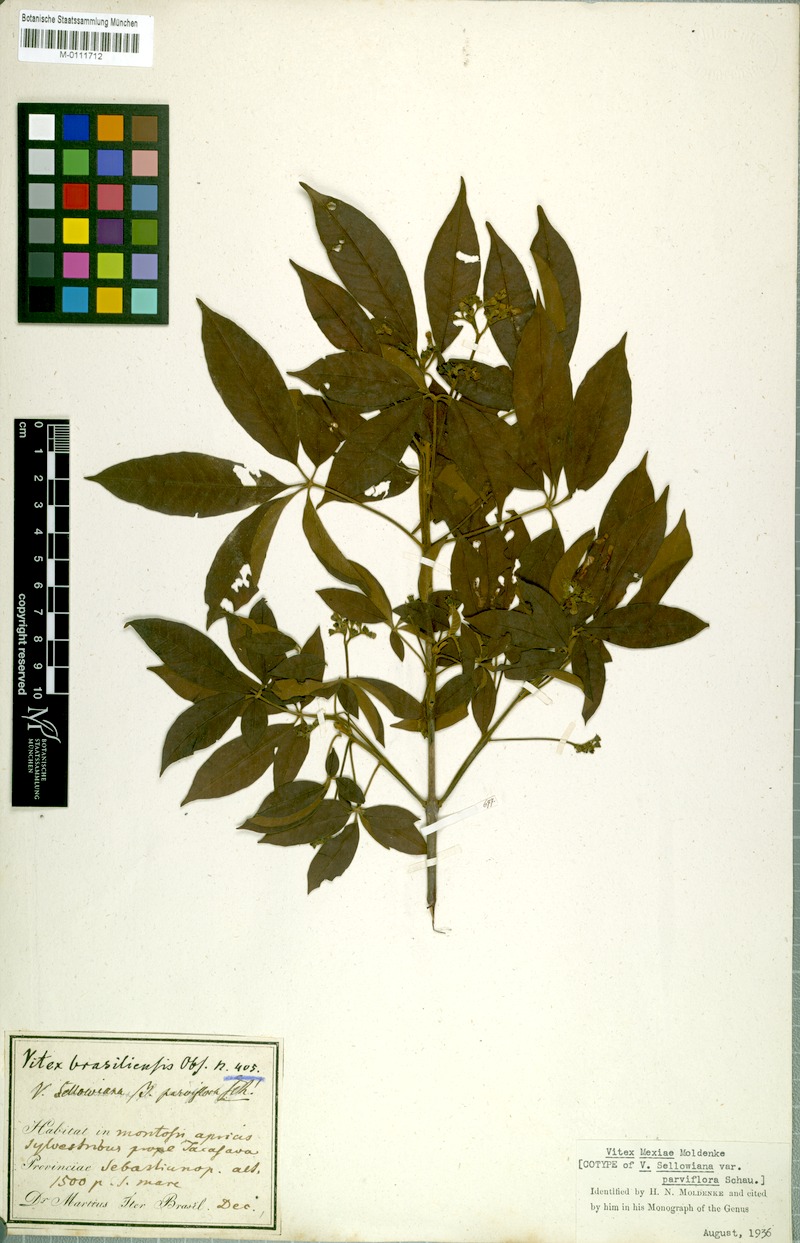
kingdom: Plantae
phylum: Tracheophyta
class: Magnoliopsida
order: Lamiales
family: Lamiaceae
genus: Vitex
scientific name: Vitex sellowiana
